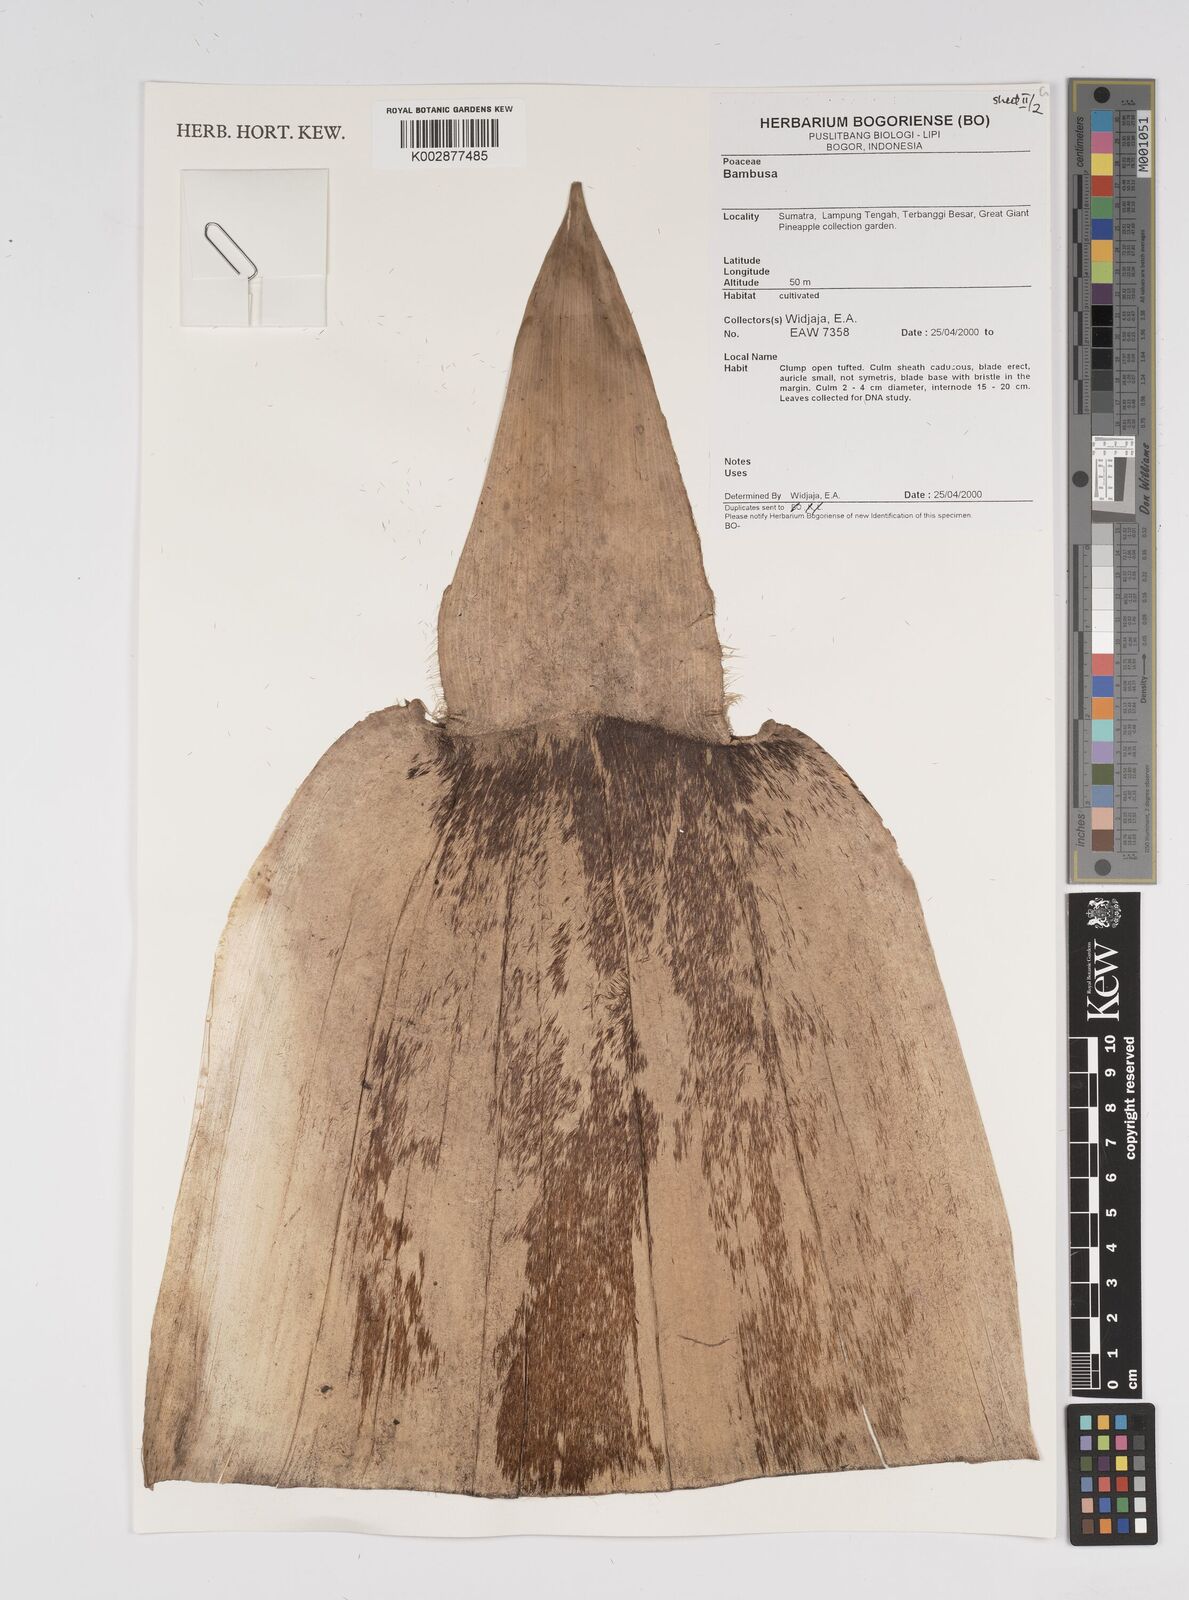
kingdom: Plantae
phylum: Tracheophyta
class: Liliopsida
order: Poales
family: Poaceae
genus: Bambusa
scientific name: Bambusa
